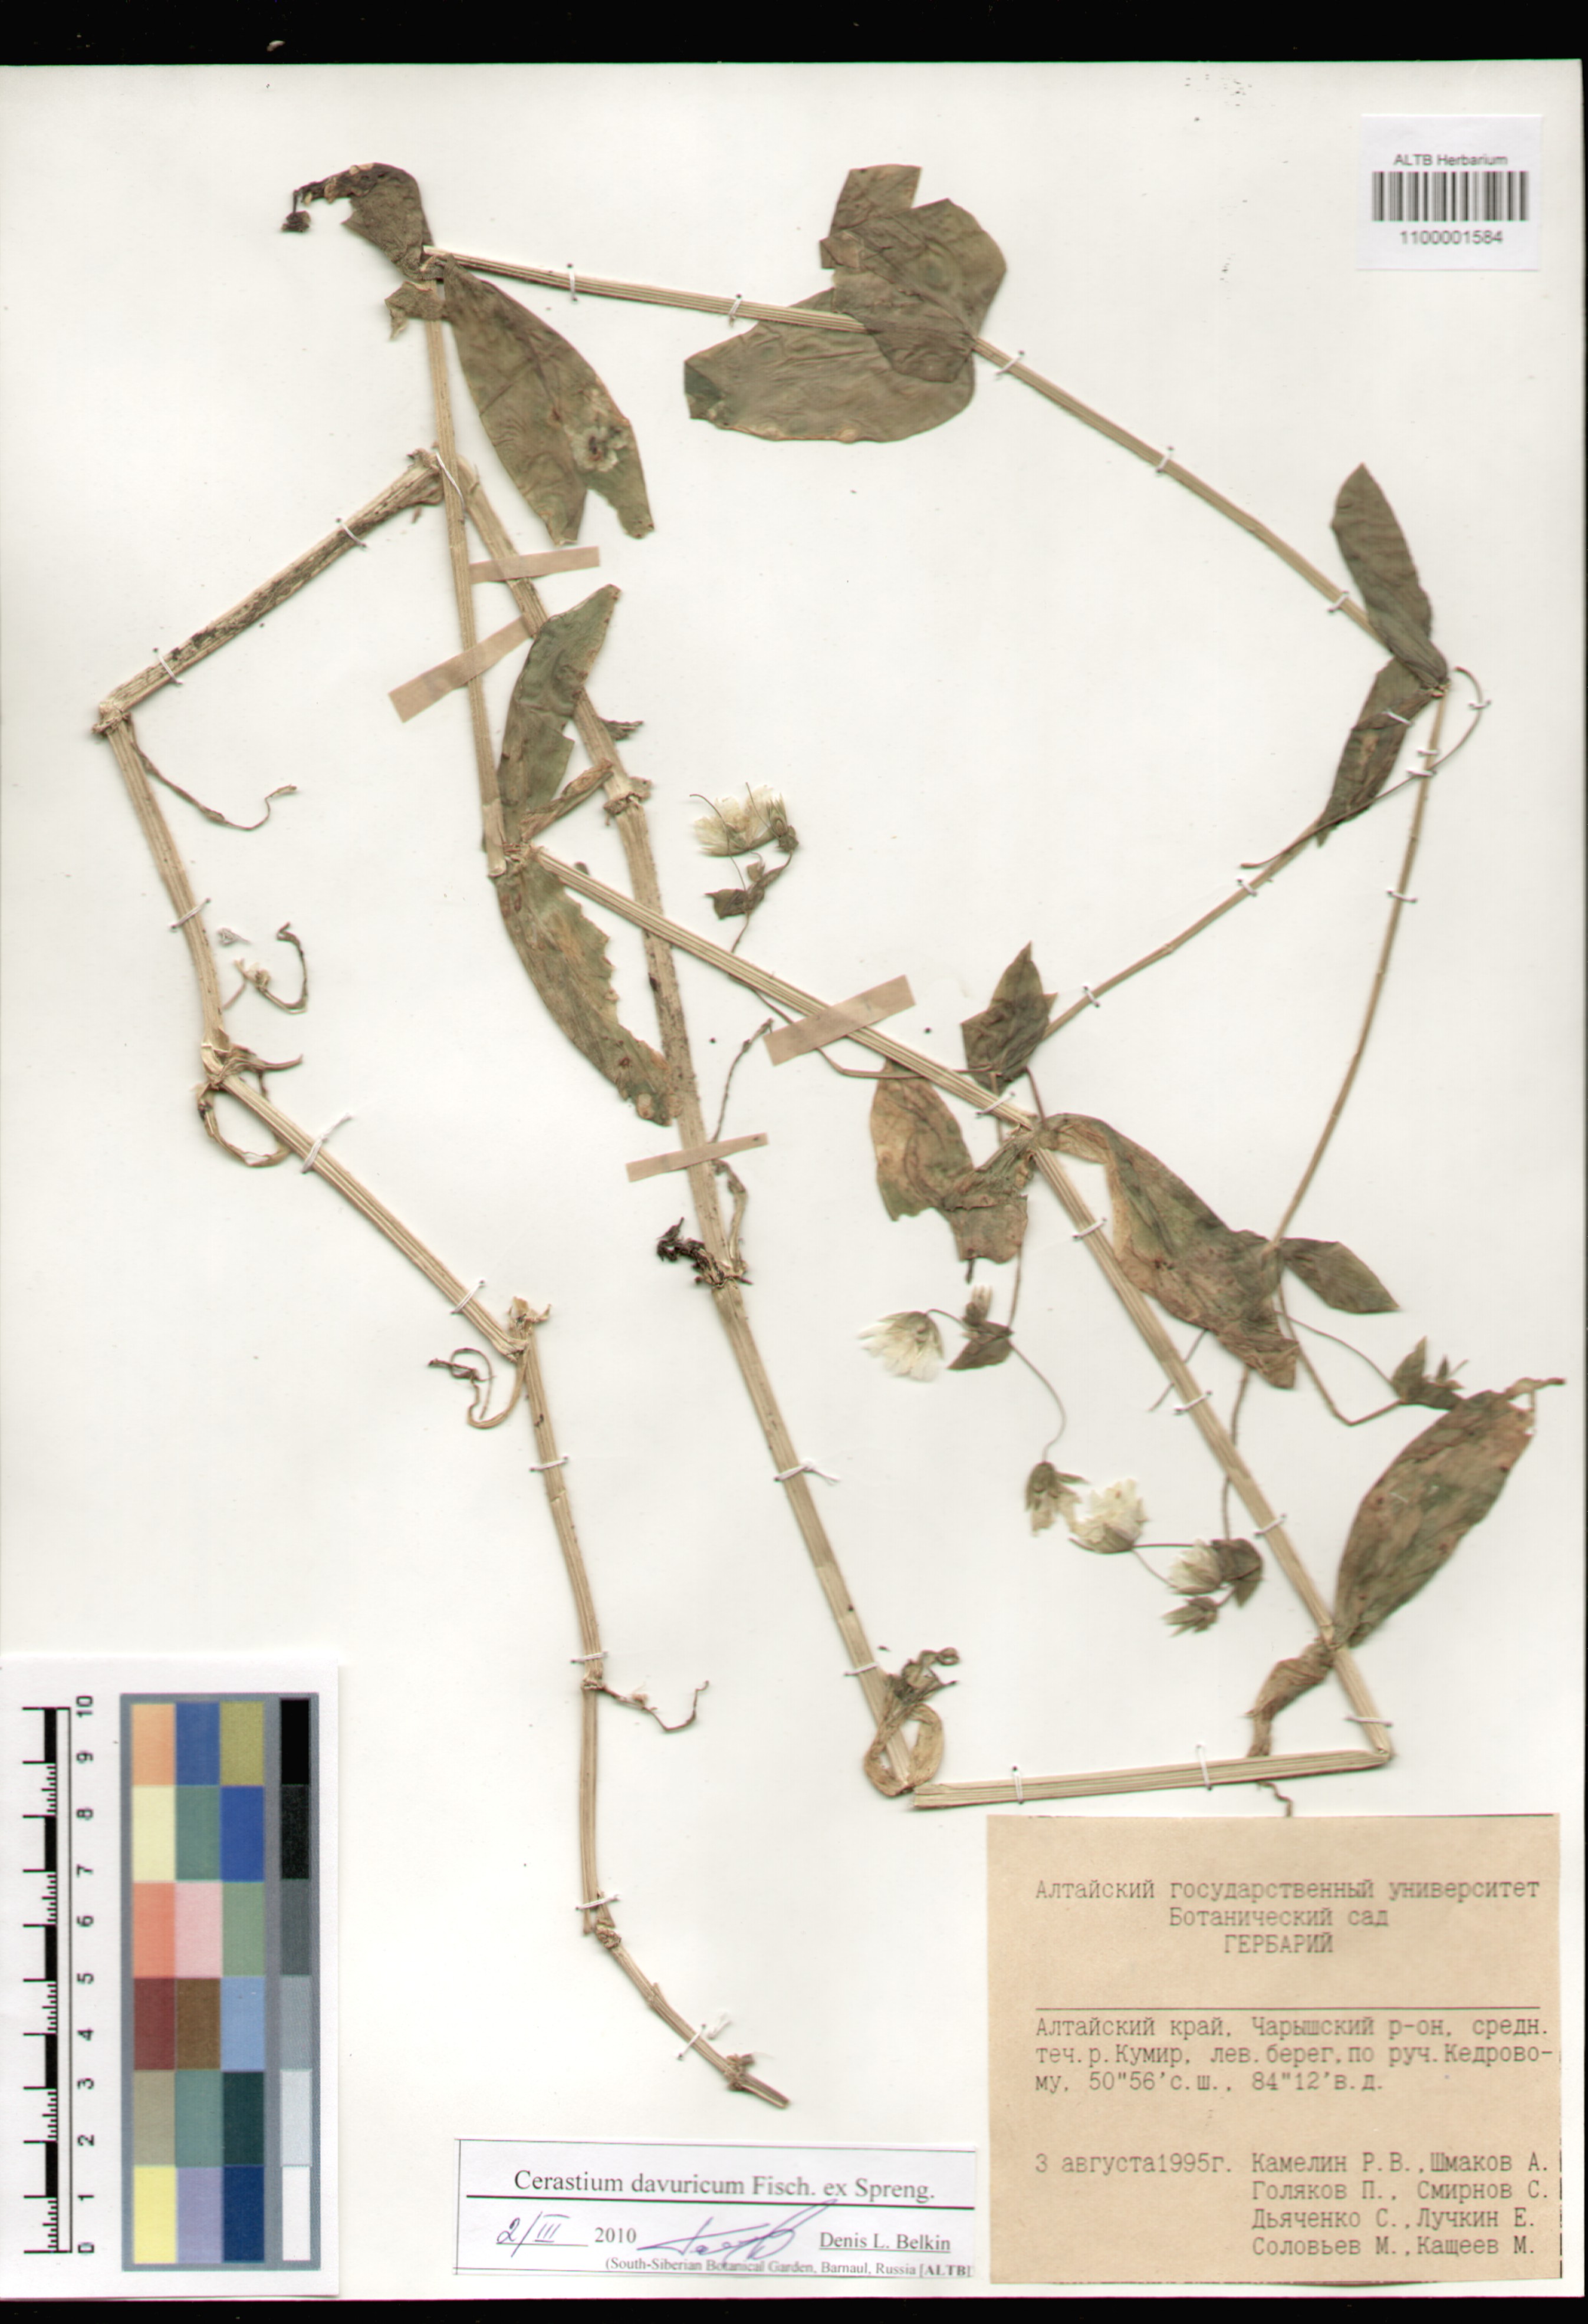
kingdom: Plantae
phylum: Tracheophyta
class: Magnoliopsida
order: Caryophyllales
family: Caryophyllaceae
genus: Dichodon
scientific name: Dichodon davuricum
